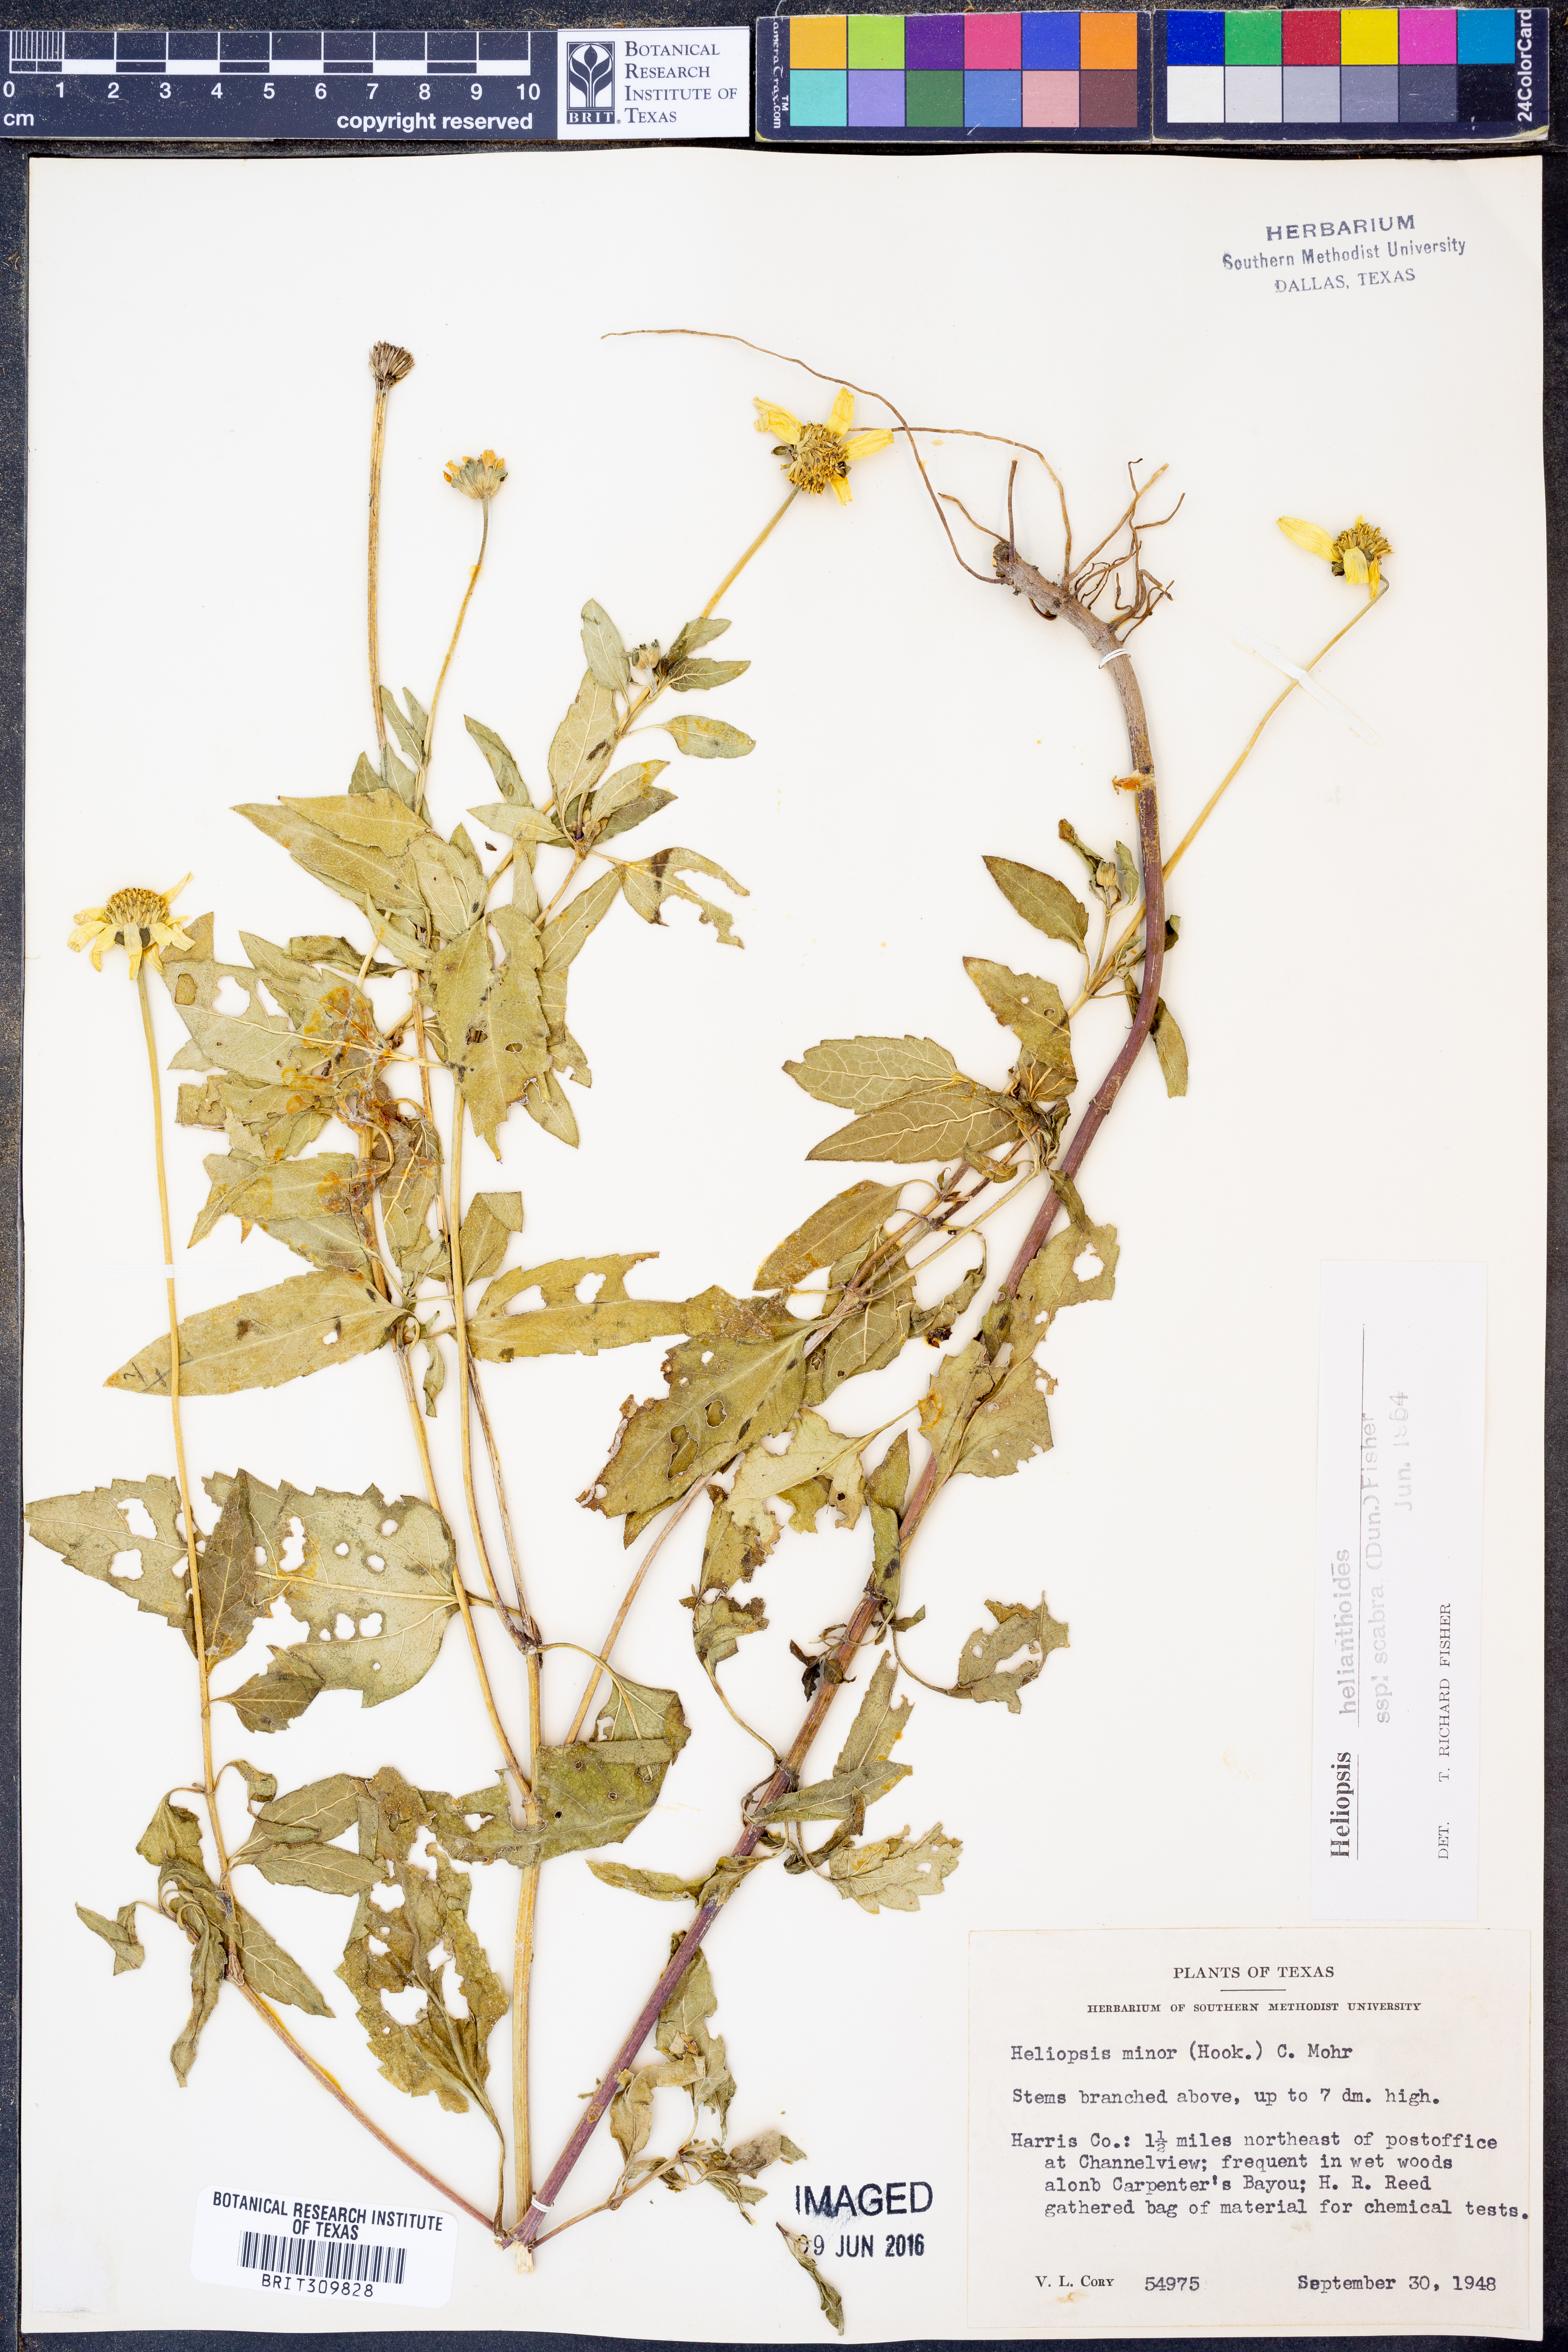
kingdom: Plantae
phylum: Tracheophyta
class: Magnoliopsida
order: Asterales
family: Asteraceae
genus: Heliopsis
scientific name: Heliopsis helianthoides
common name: False sunflower
